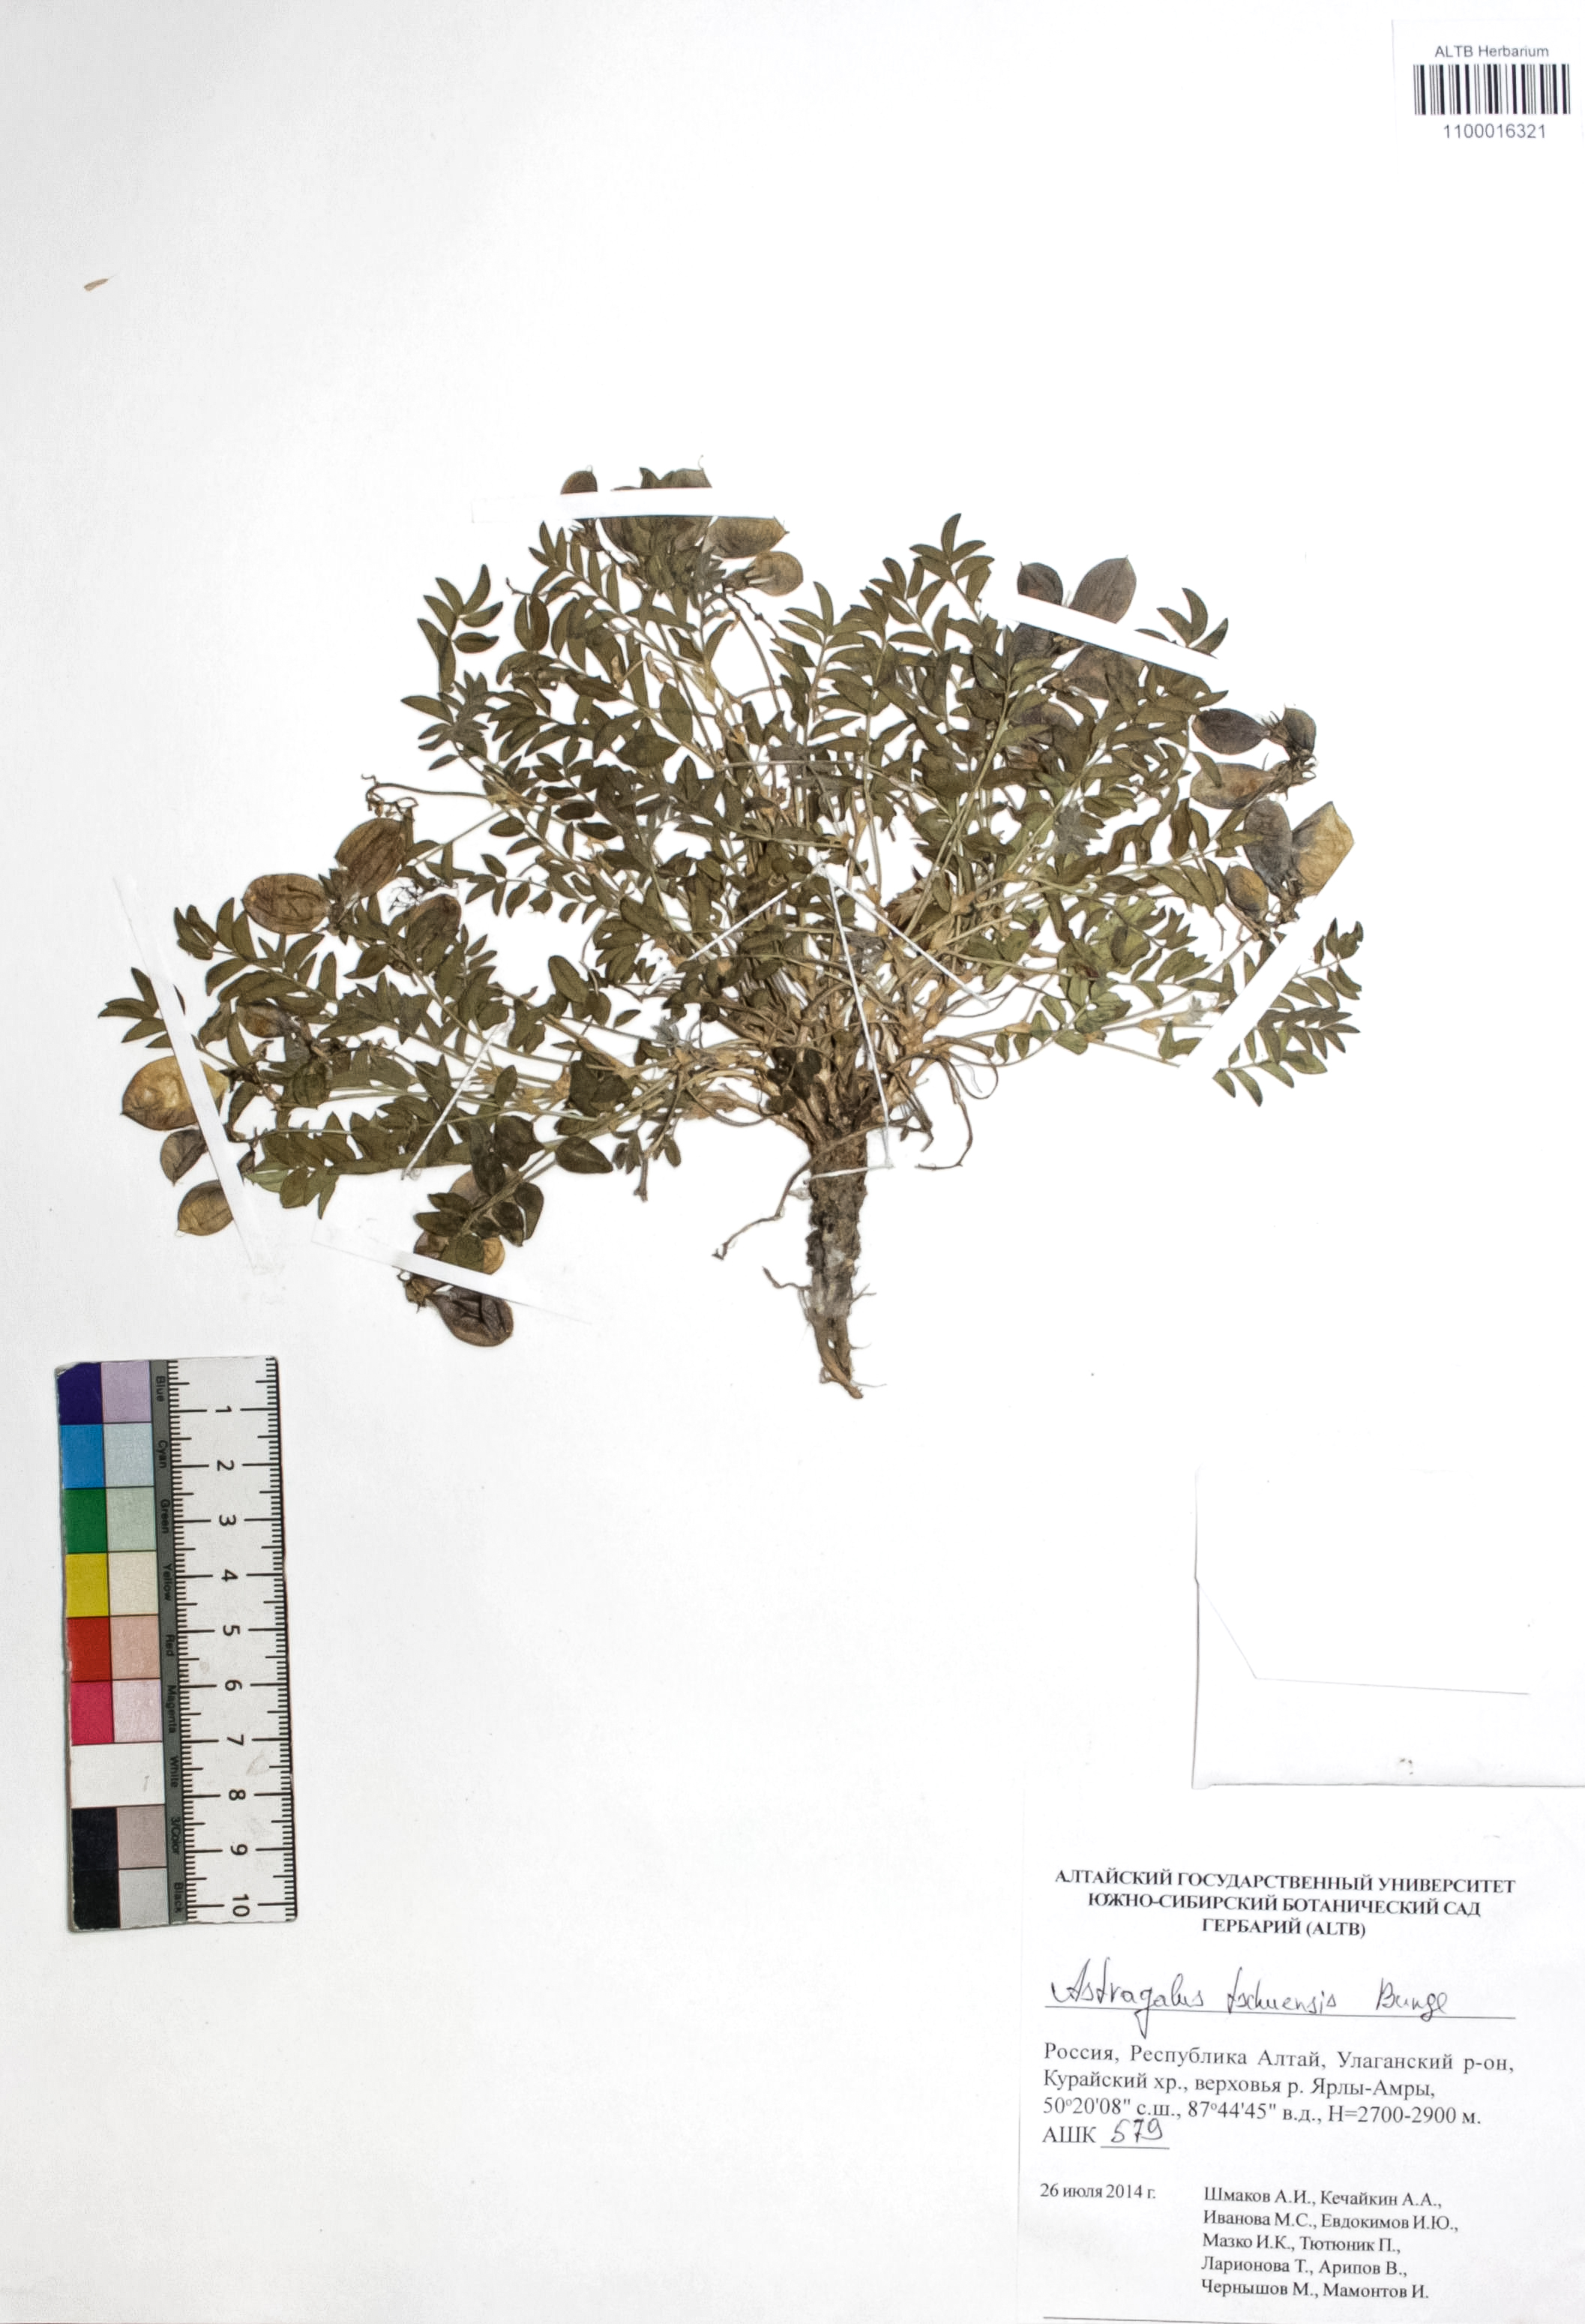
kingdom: Plantae
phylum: Tracheophyta
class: Magnoliopsida
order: Fabales
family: Fabaceae
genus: Astragalus
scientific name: Astragalus tschujensis
